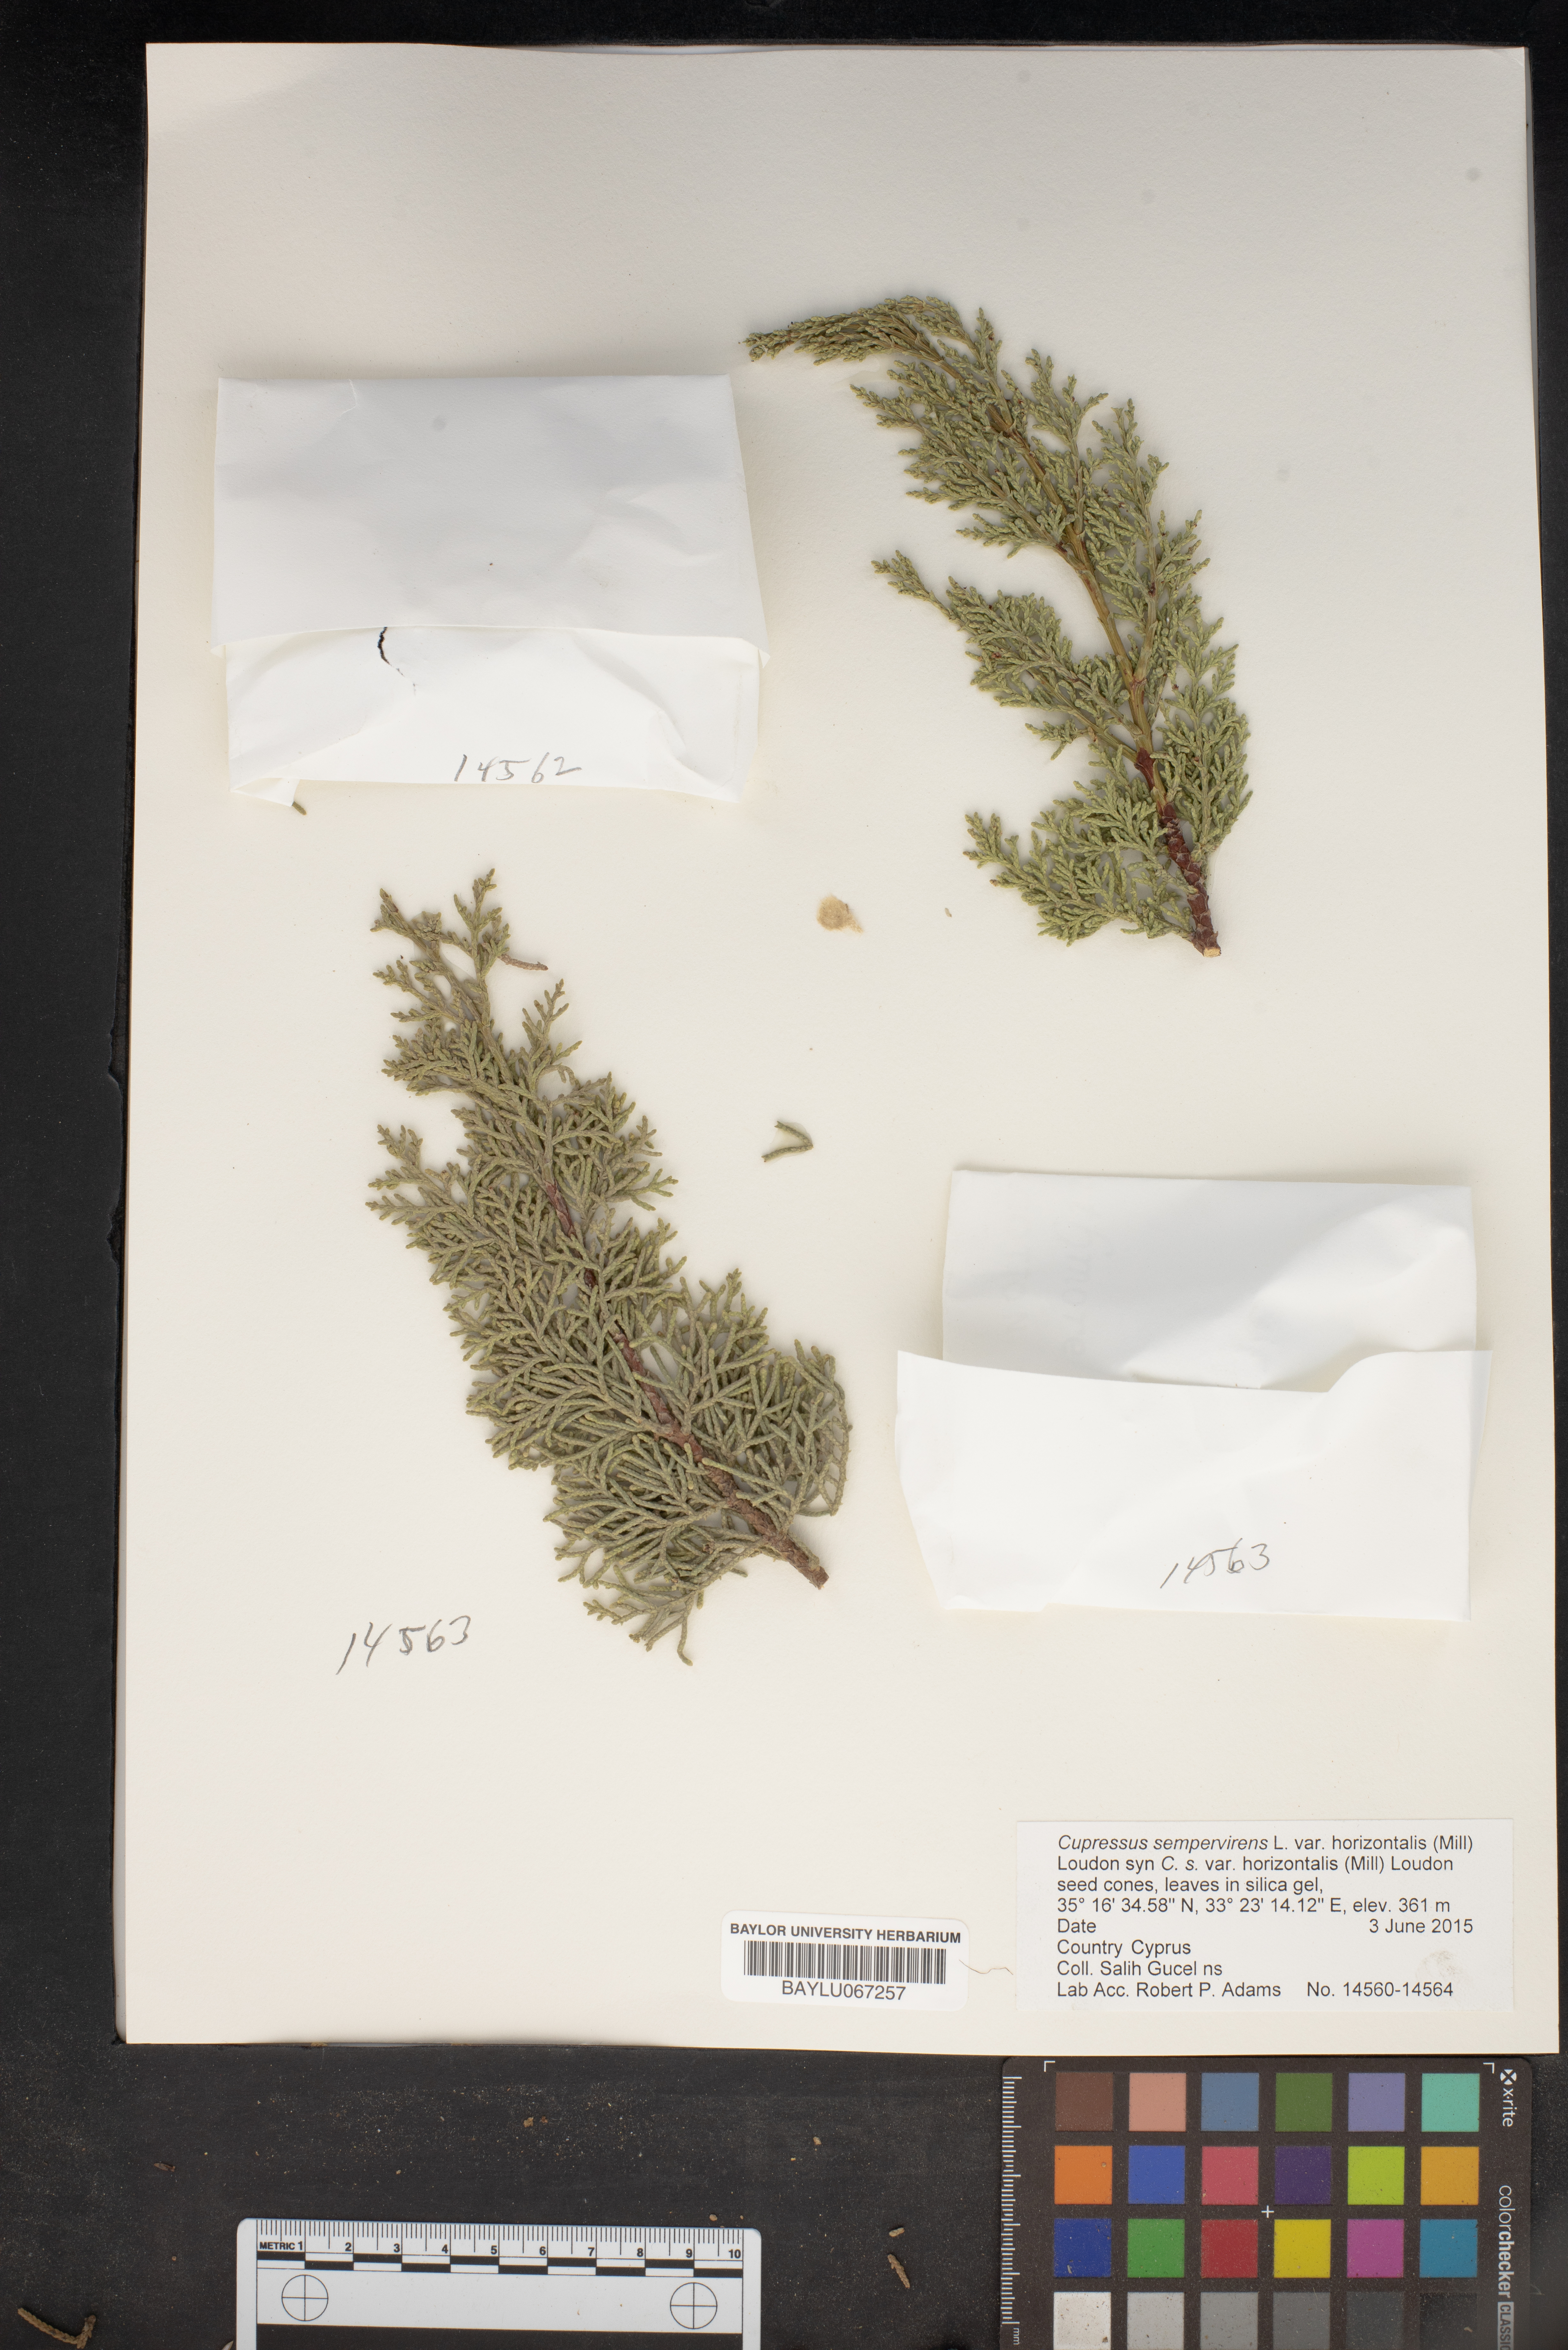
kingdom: Plantae
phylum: Tracheophyta
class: Pinopsida
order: Pinales
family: Cupressaceae
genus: Cupressus
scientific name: Cupressus sempervirens
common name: Italian cypress
